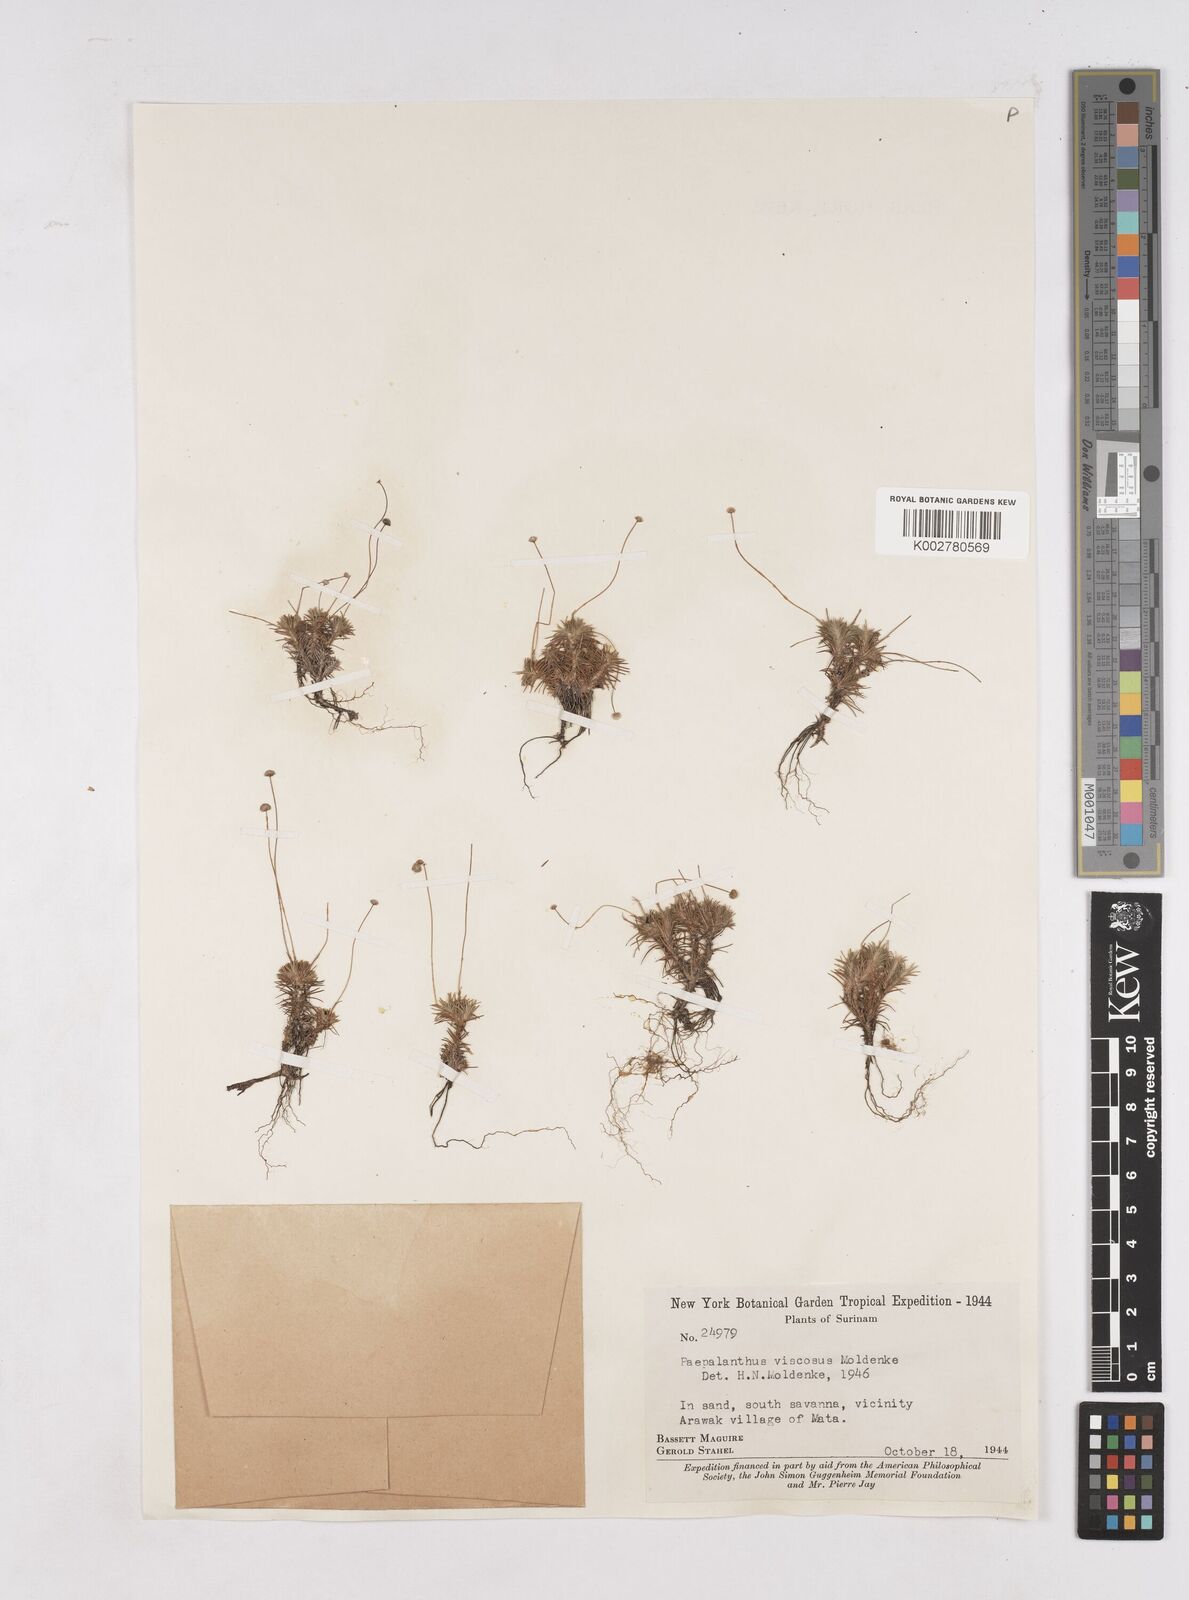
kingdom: Plantae
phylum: Tracheophyta
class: Liliopsida
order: Poales
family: Eriocaulaceae
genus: Paepalanthus
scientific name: Paepalanthus polytrichoides
